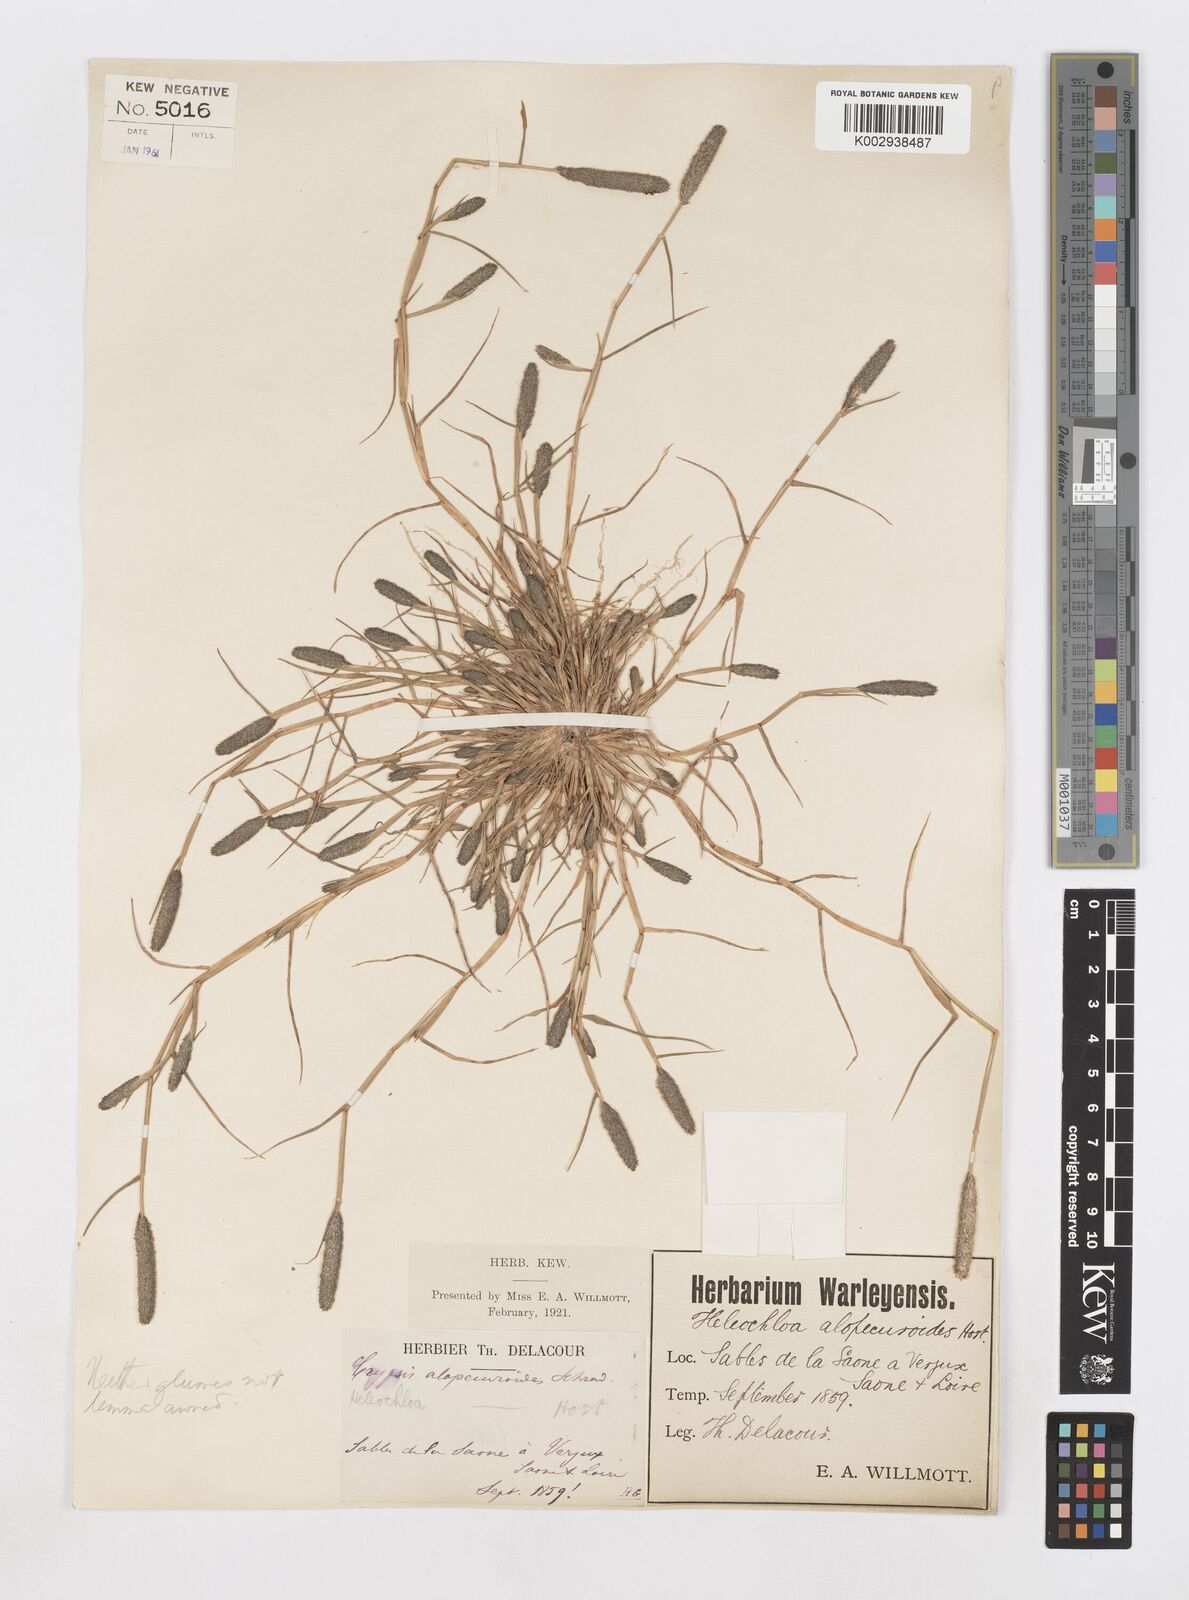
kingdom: Plantae
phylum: Tracheophyta
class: Liliopsida
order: Poales
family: Poaceae
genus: Sporobolus
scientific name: Sporobolus alopecuroides
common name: Foxtail pricklegrass
